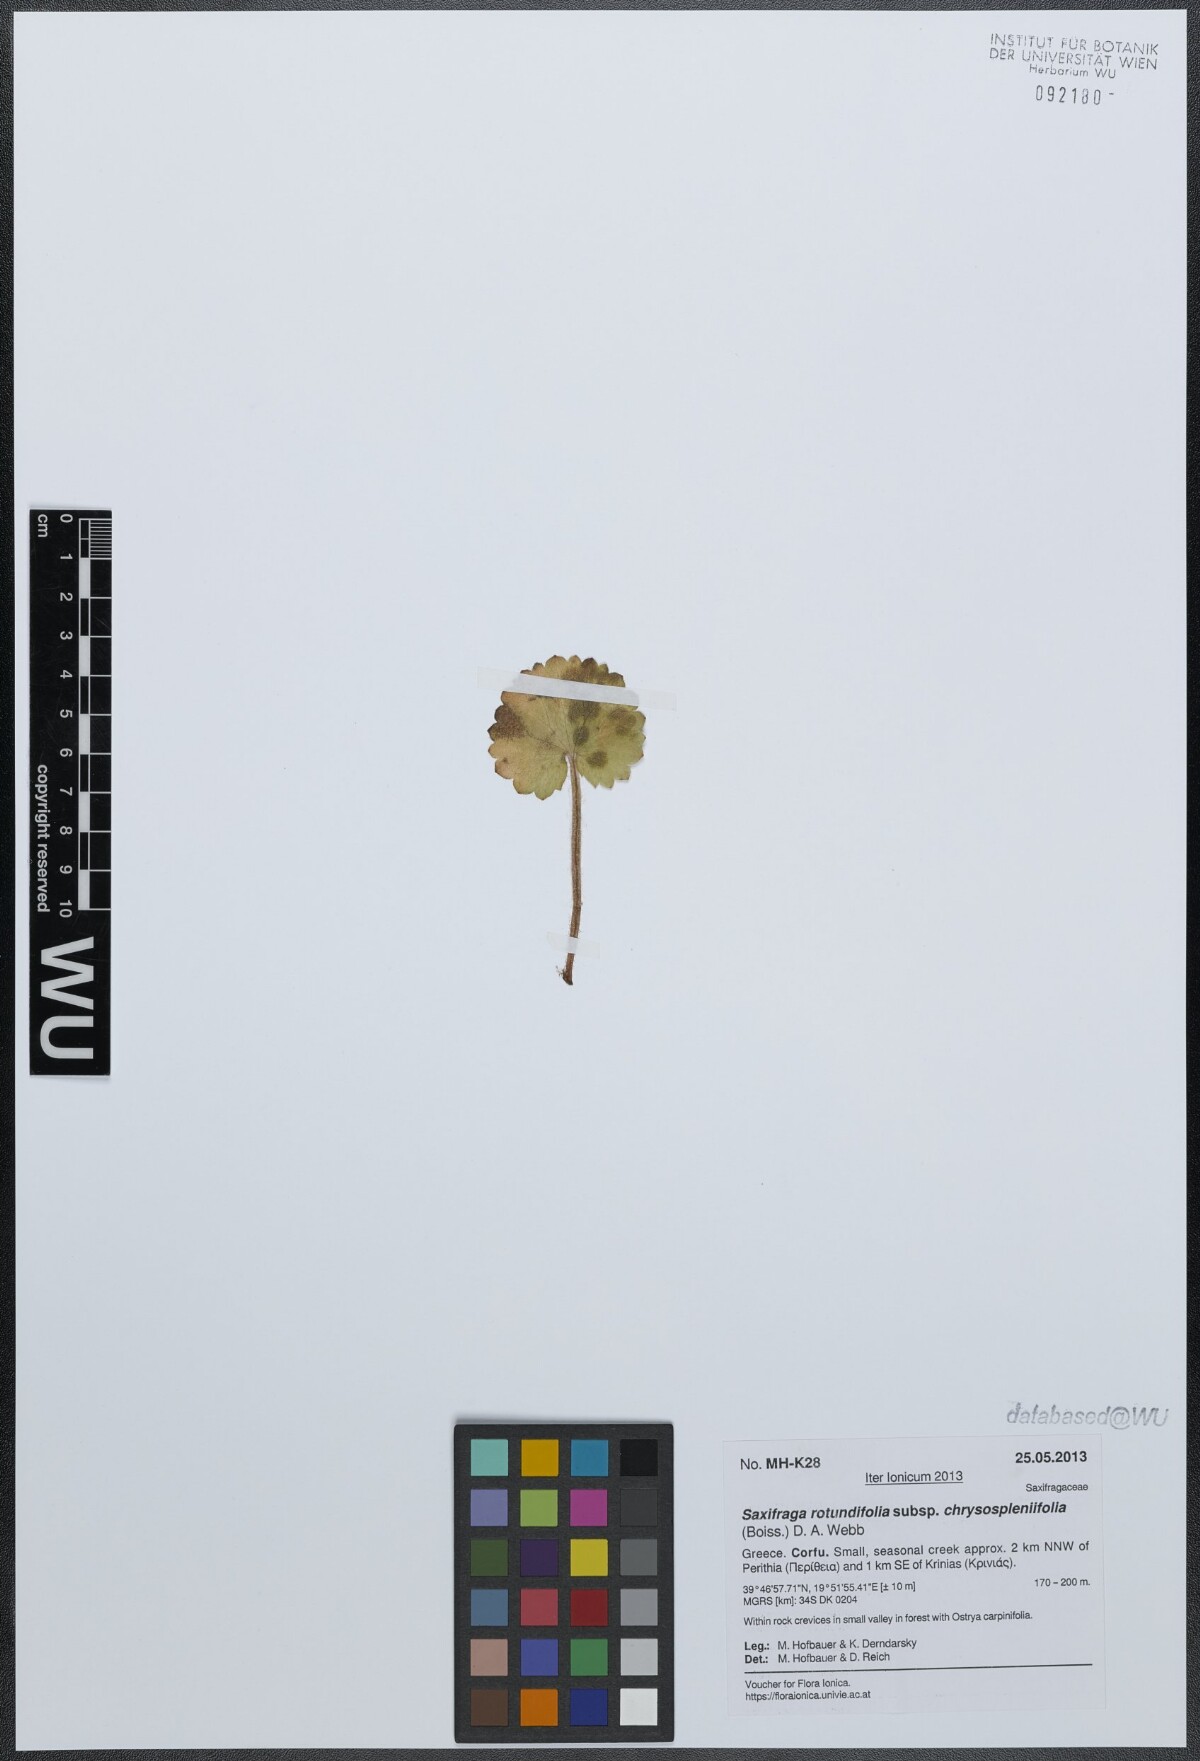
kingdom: Plantae
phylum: Tracheophyta
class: Magnoliopsida
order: Saxifragales
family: Saxifragaceae
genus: Saxifraga
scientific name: Saxifraga rotundifolia
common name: Round-leaved saxifrage
